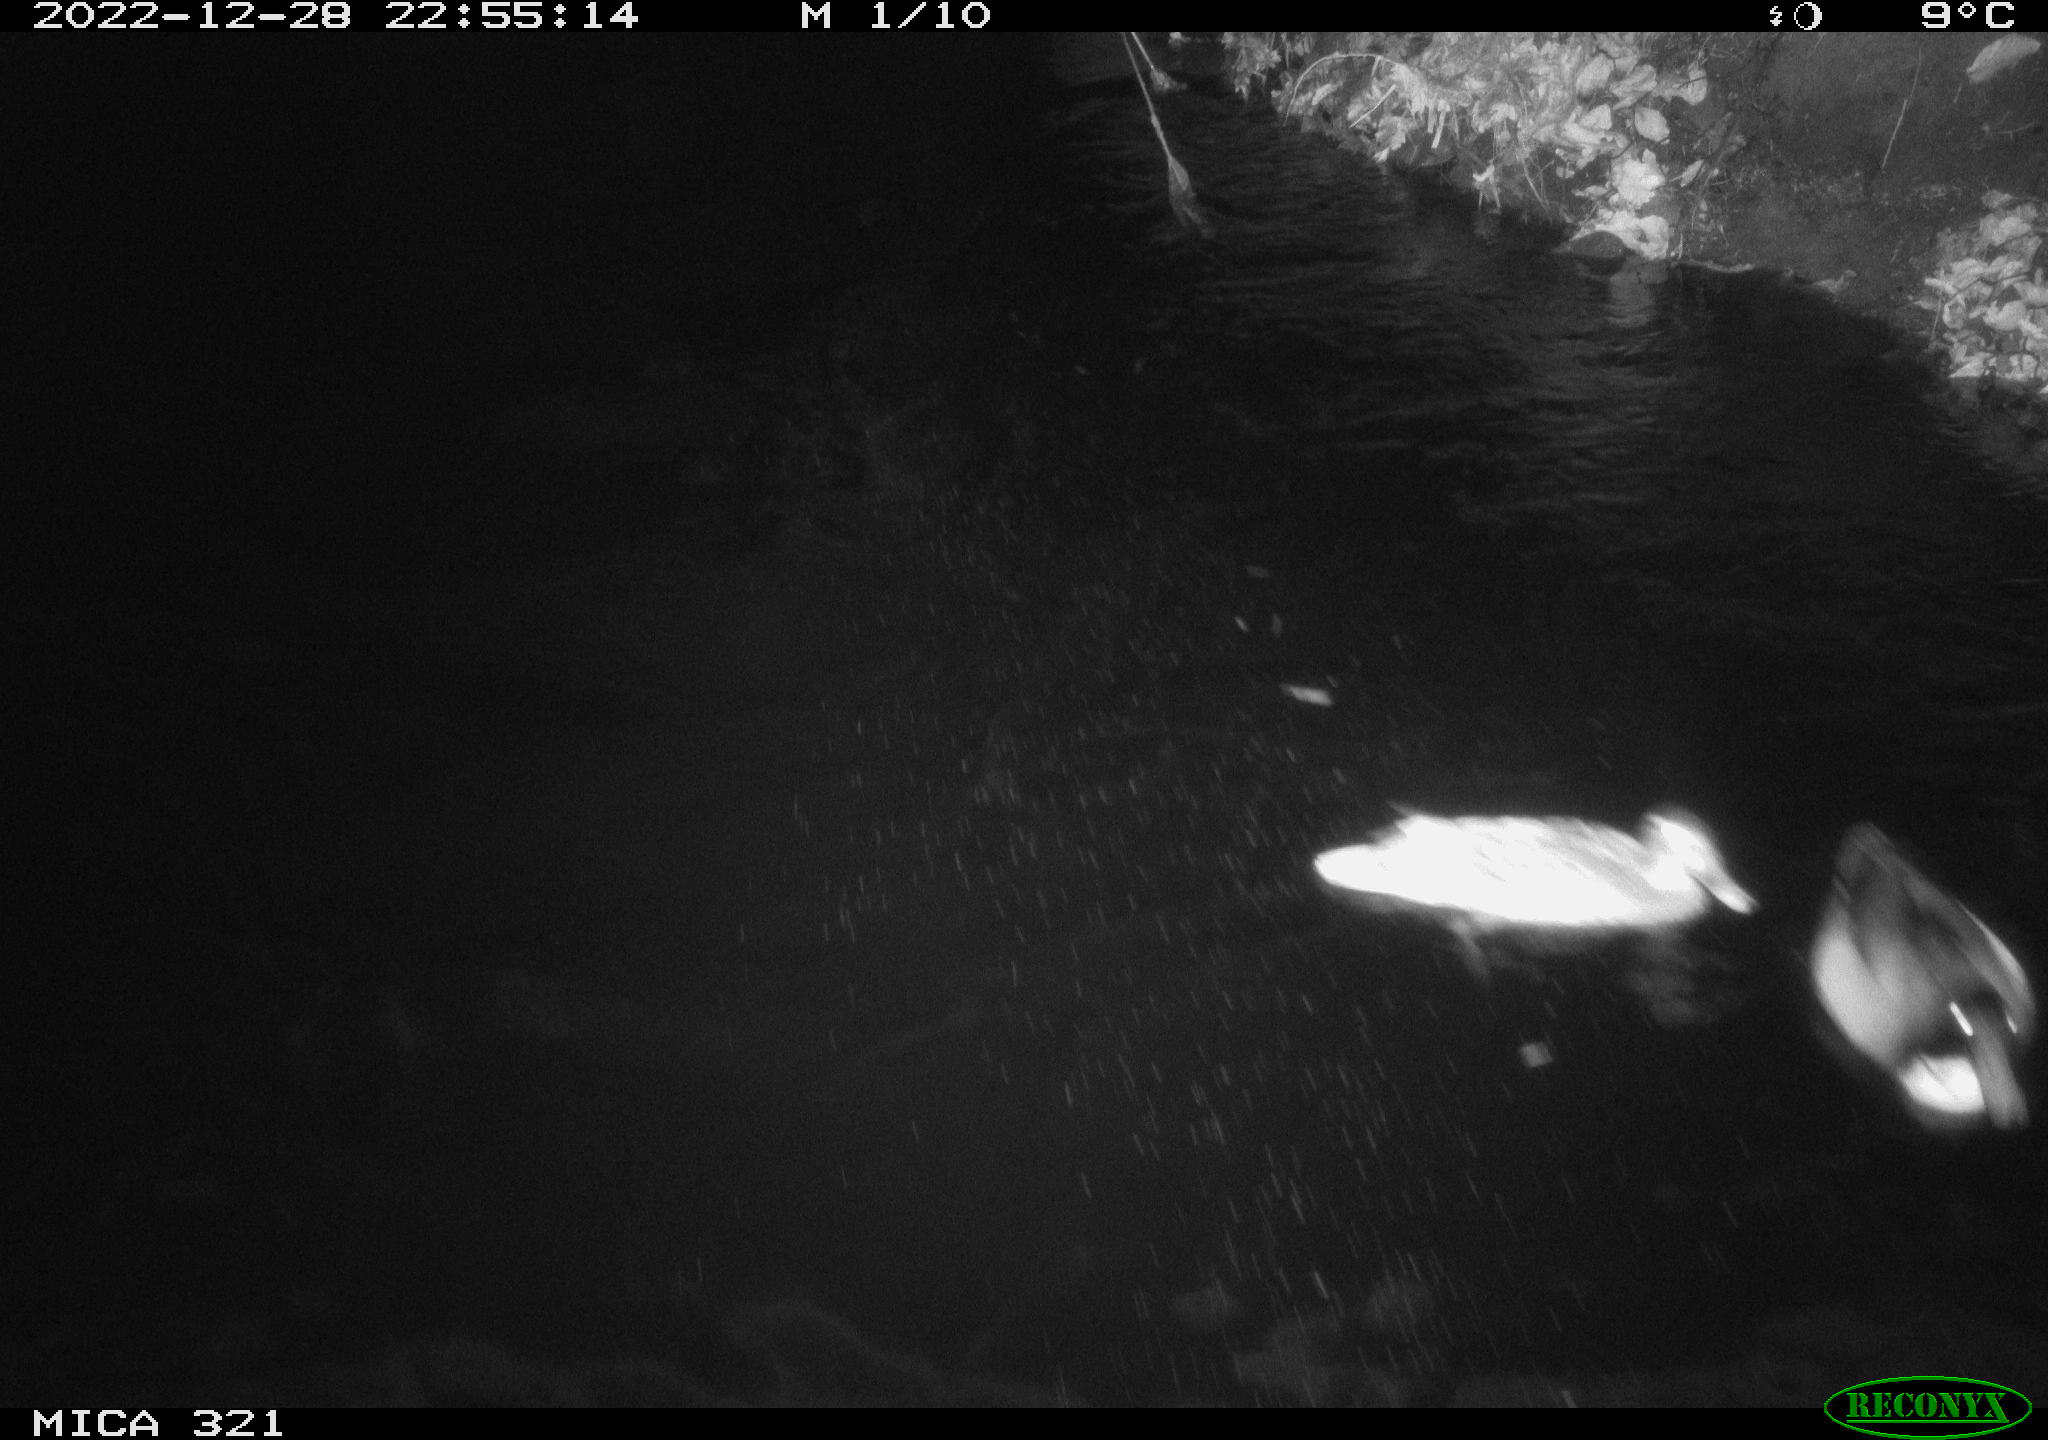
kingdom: Animalia
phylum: Chordata
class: Mammalia
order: Rodentia
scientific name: Rodentia
